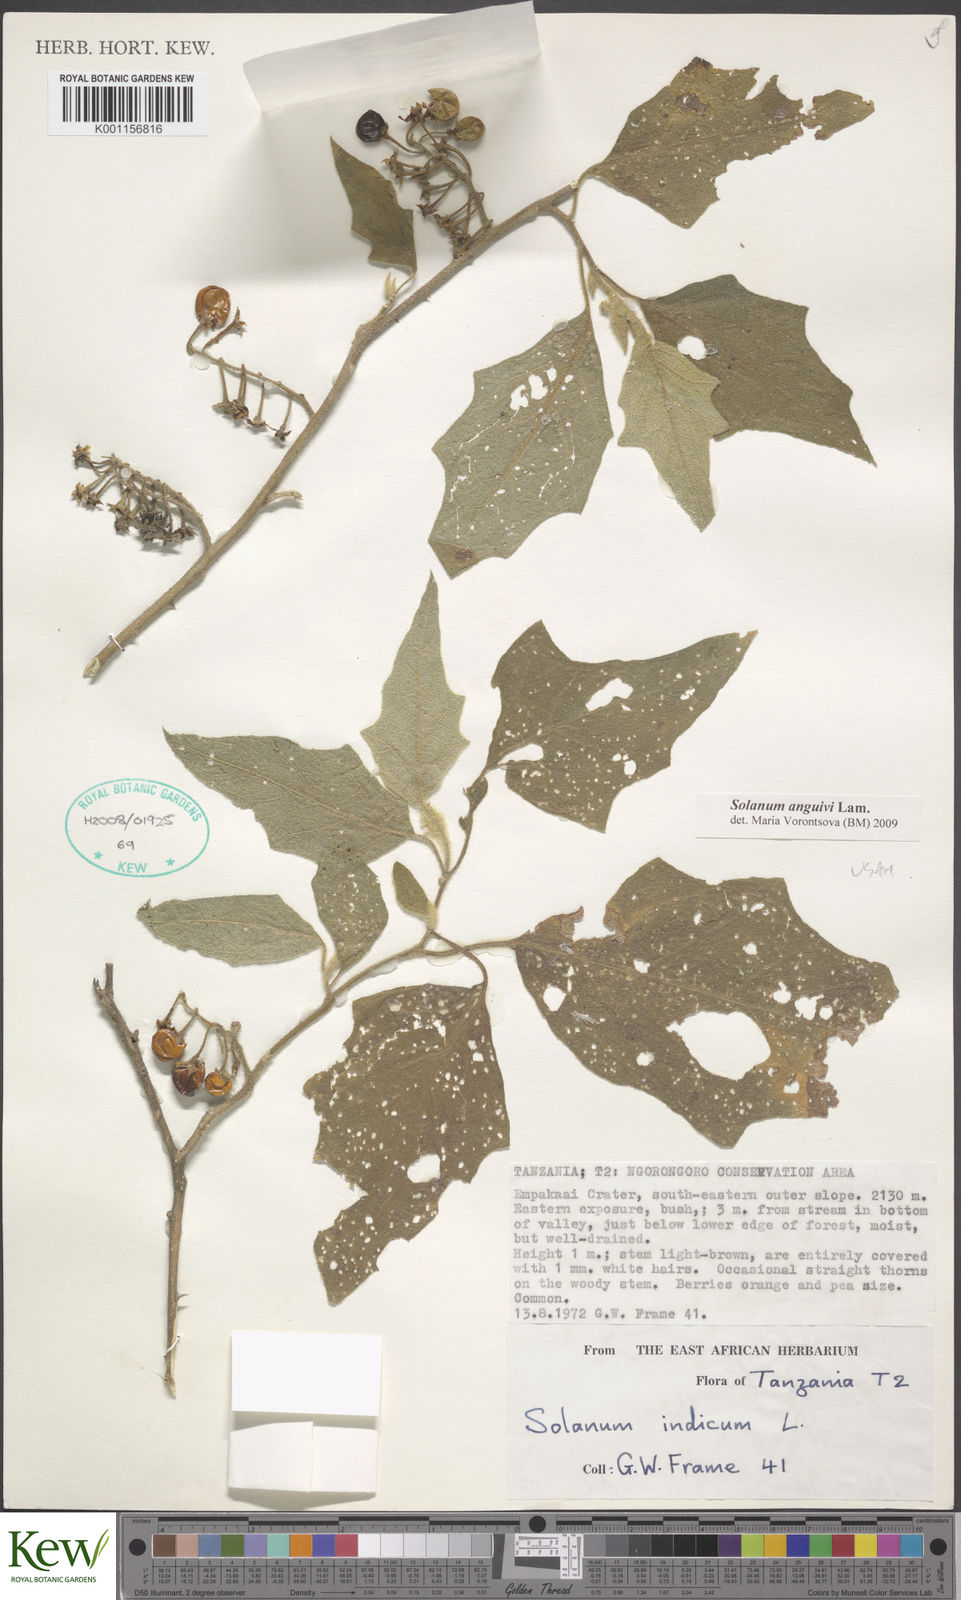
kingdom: Plantae
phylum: Tracheophyta
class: Magnoliopsida
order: Solanales
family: Solanaceae
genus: Solanum
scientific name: Solanum anguivi
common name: Forest bitterberry
